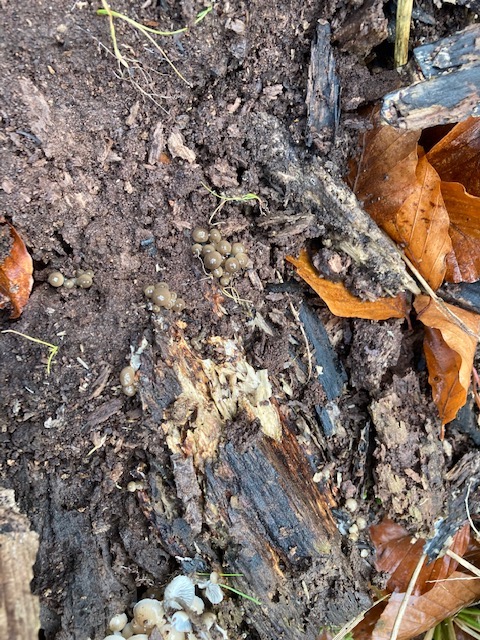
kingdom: Fungi
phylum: Basidiomycota
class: Agaricomycetes
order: Agaricales
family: Mycenaceae
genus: Mycena
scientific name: Mycena tintinnabulum
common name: vinter-huesvamp
